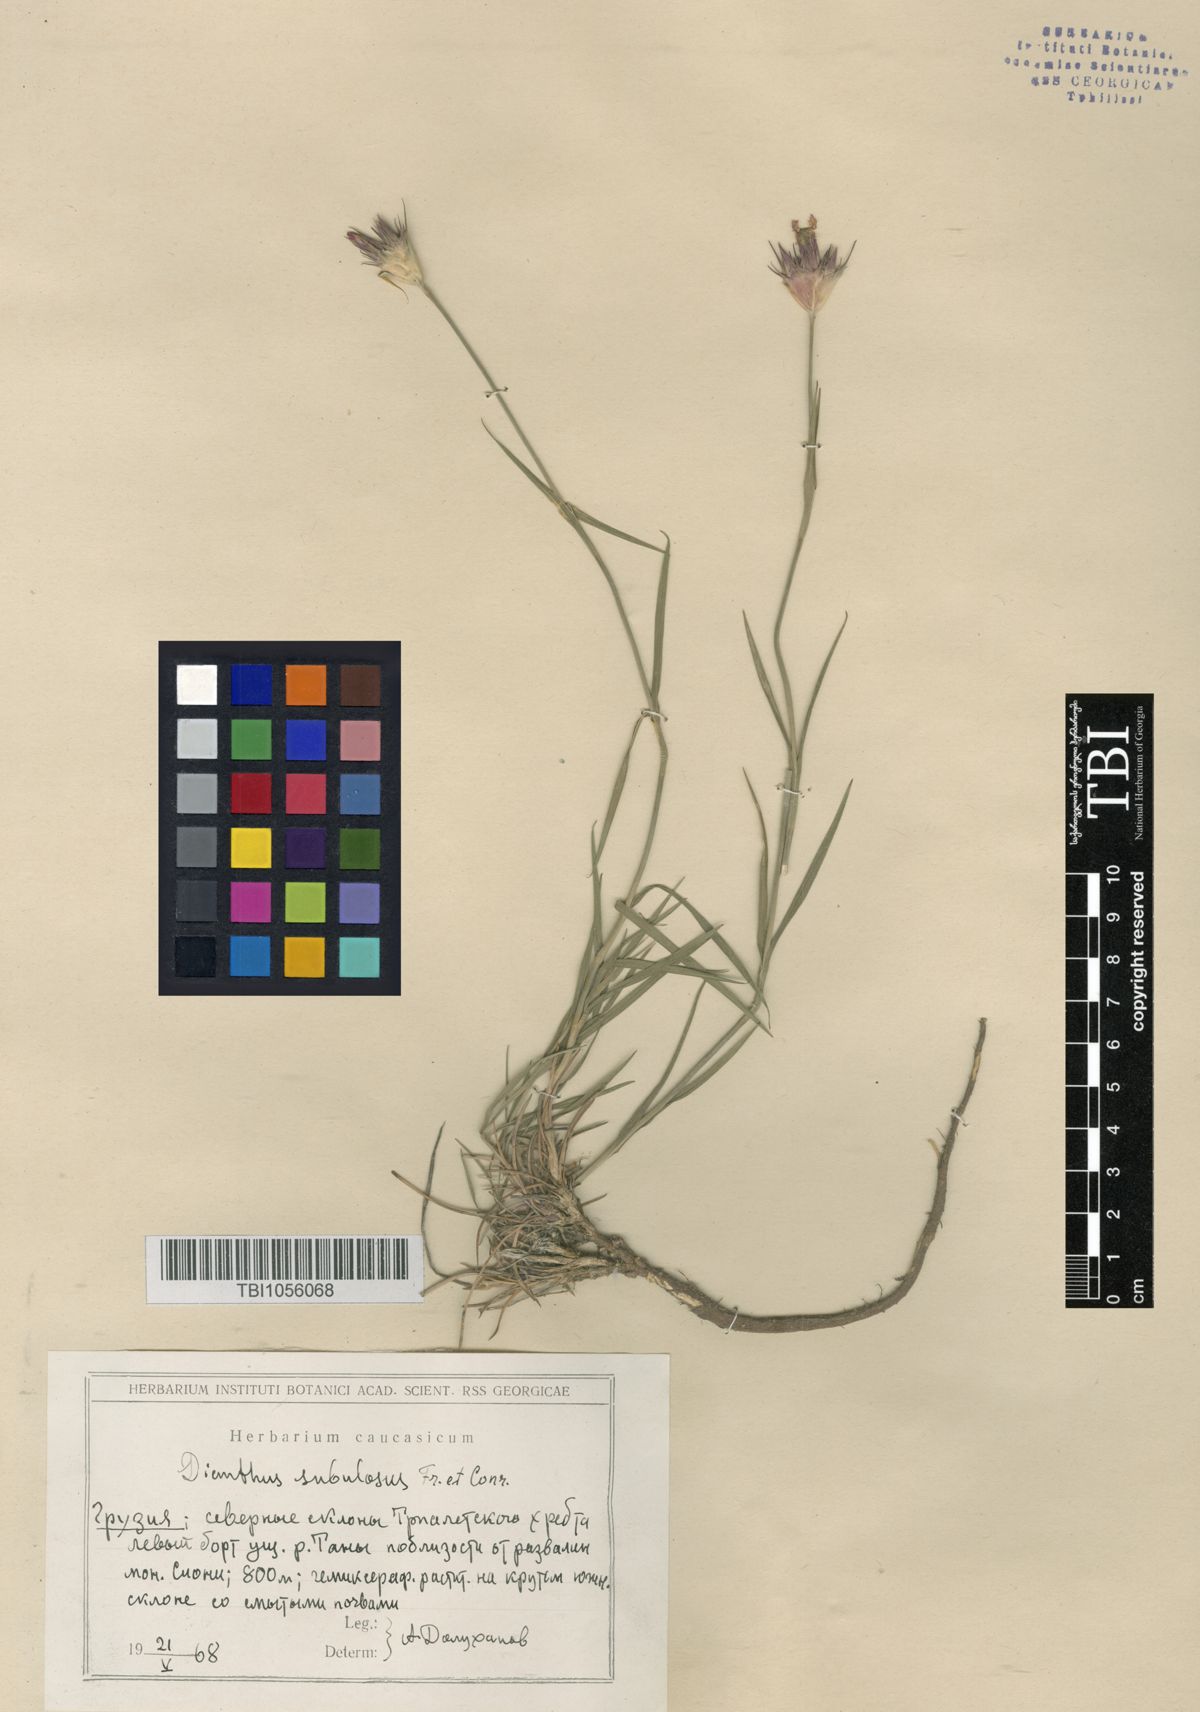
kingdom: Plantae
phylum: Tracheophyta
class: Magnoliopsida
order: Caryophyllales
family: Caryophyllaceae
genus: Dianthus
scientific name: Dianthus subulosus
